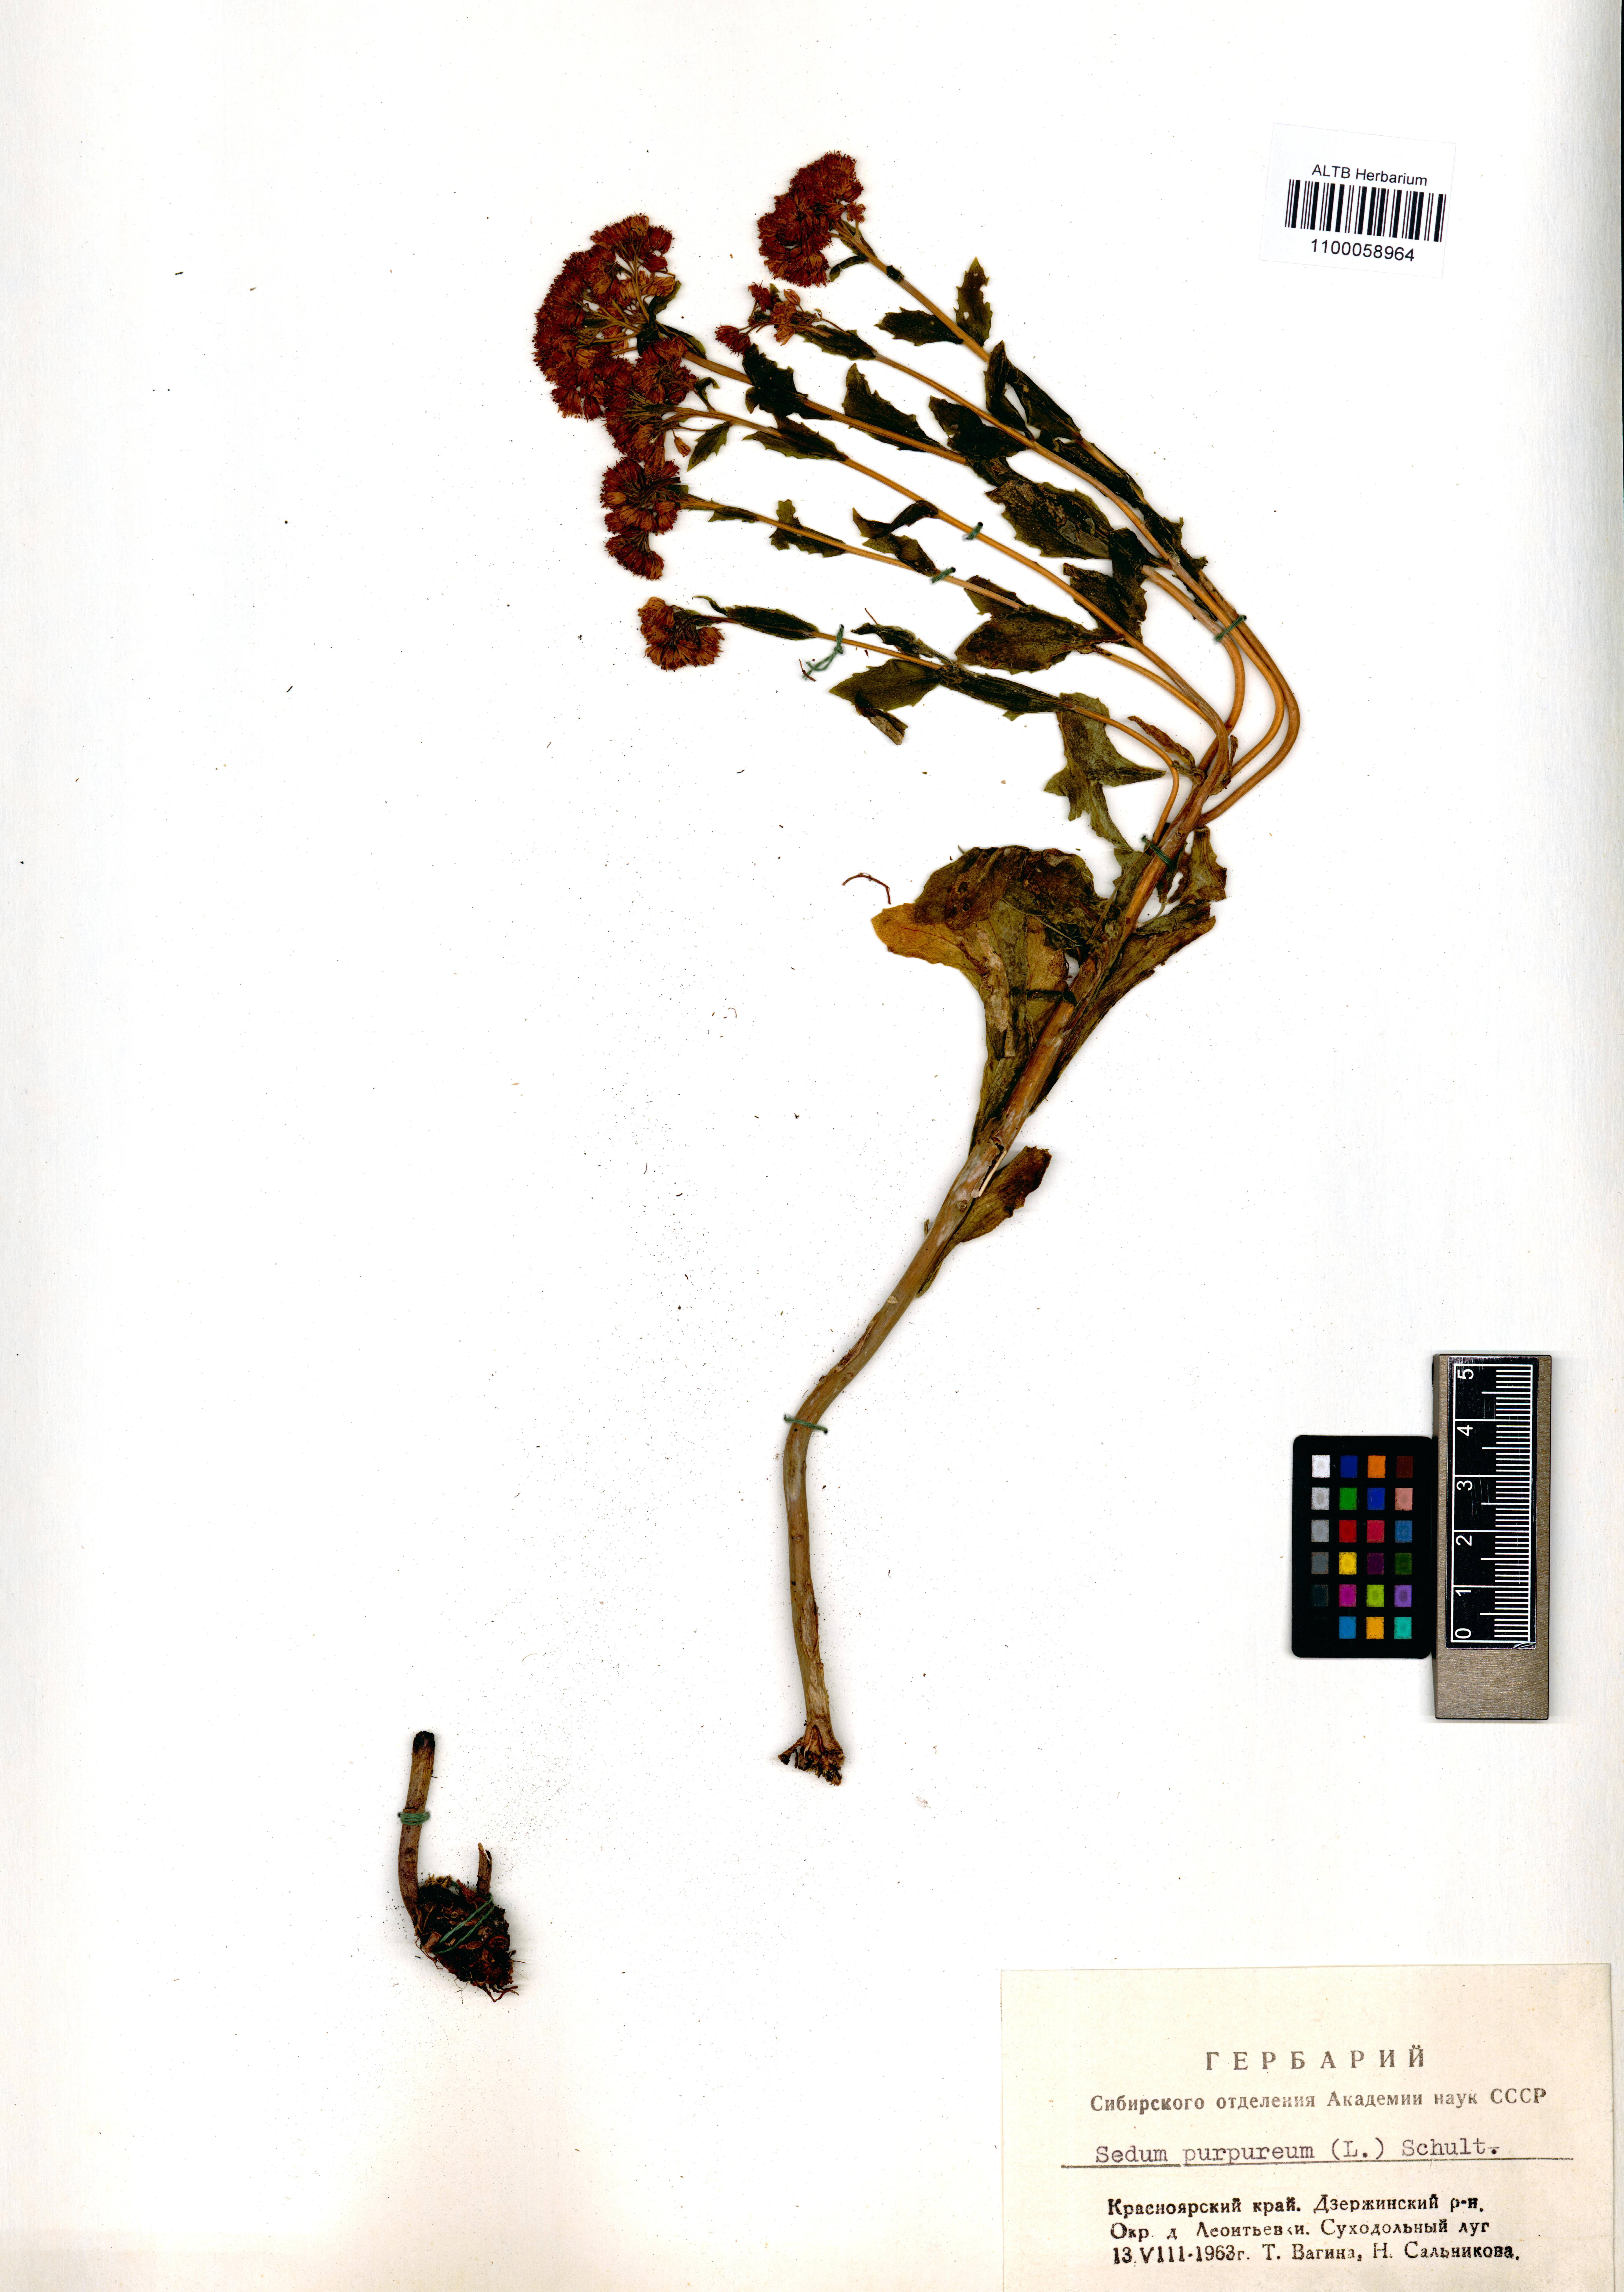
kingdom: Plantae
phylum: Tracheophyta
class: Magnoliopsida
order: Saxifragales
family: Crassulaceae
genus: Hylotelephium
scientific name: Hylotelephium telephium
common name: Live-forever
